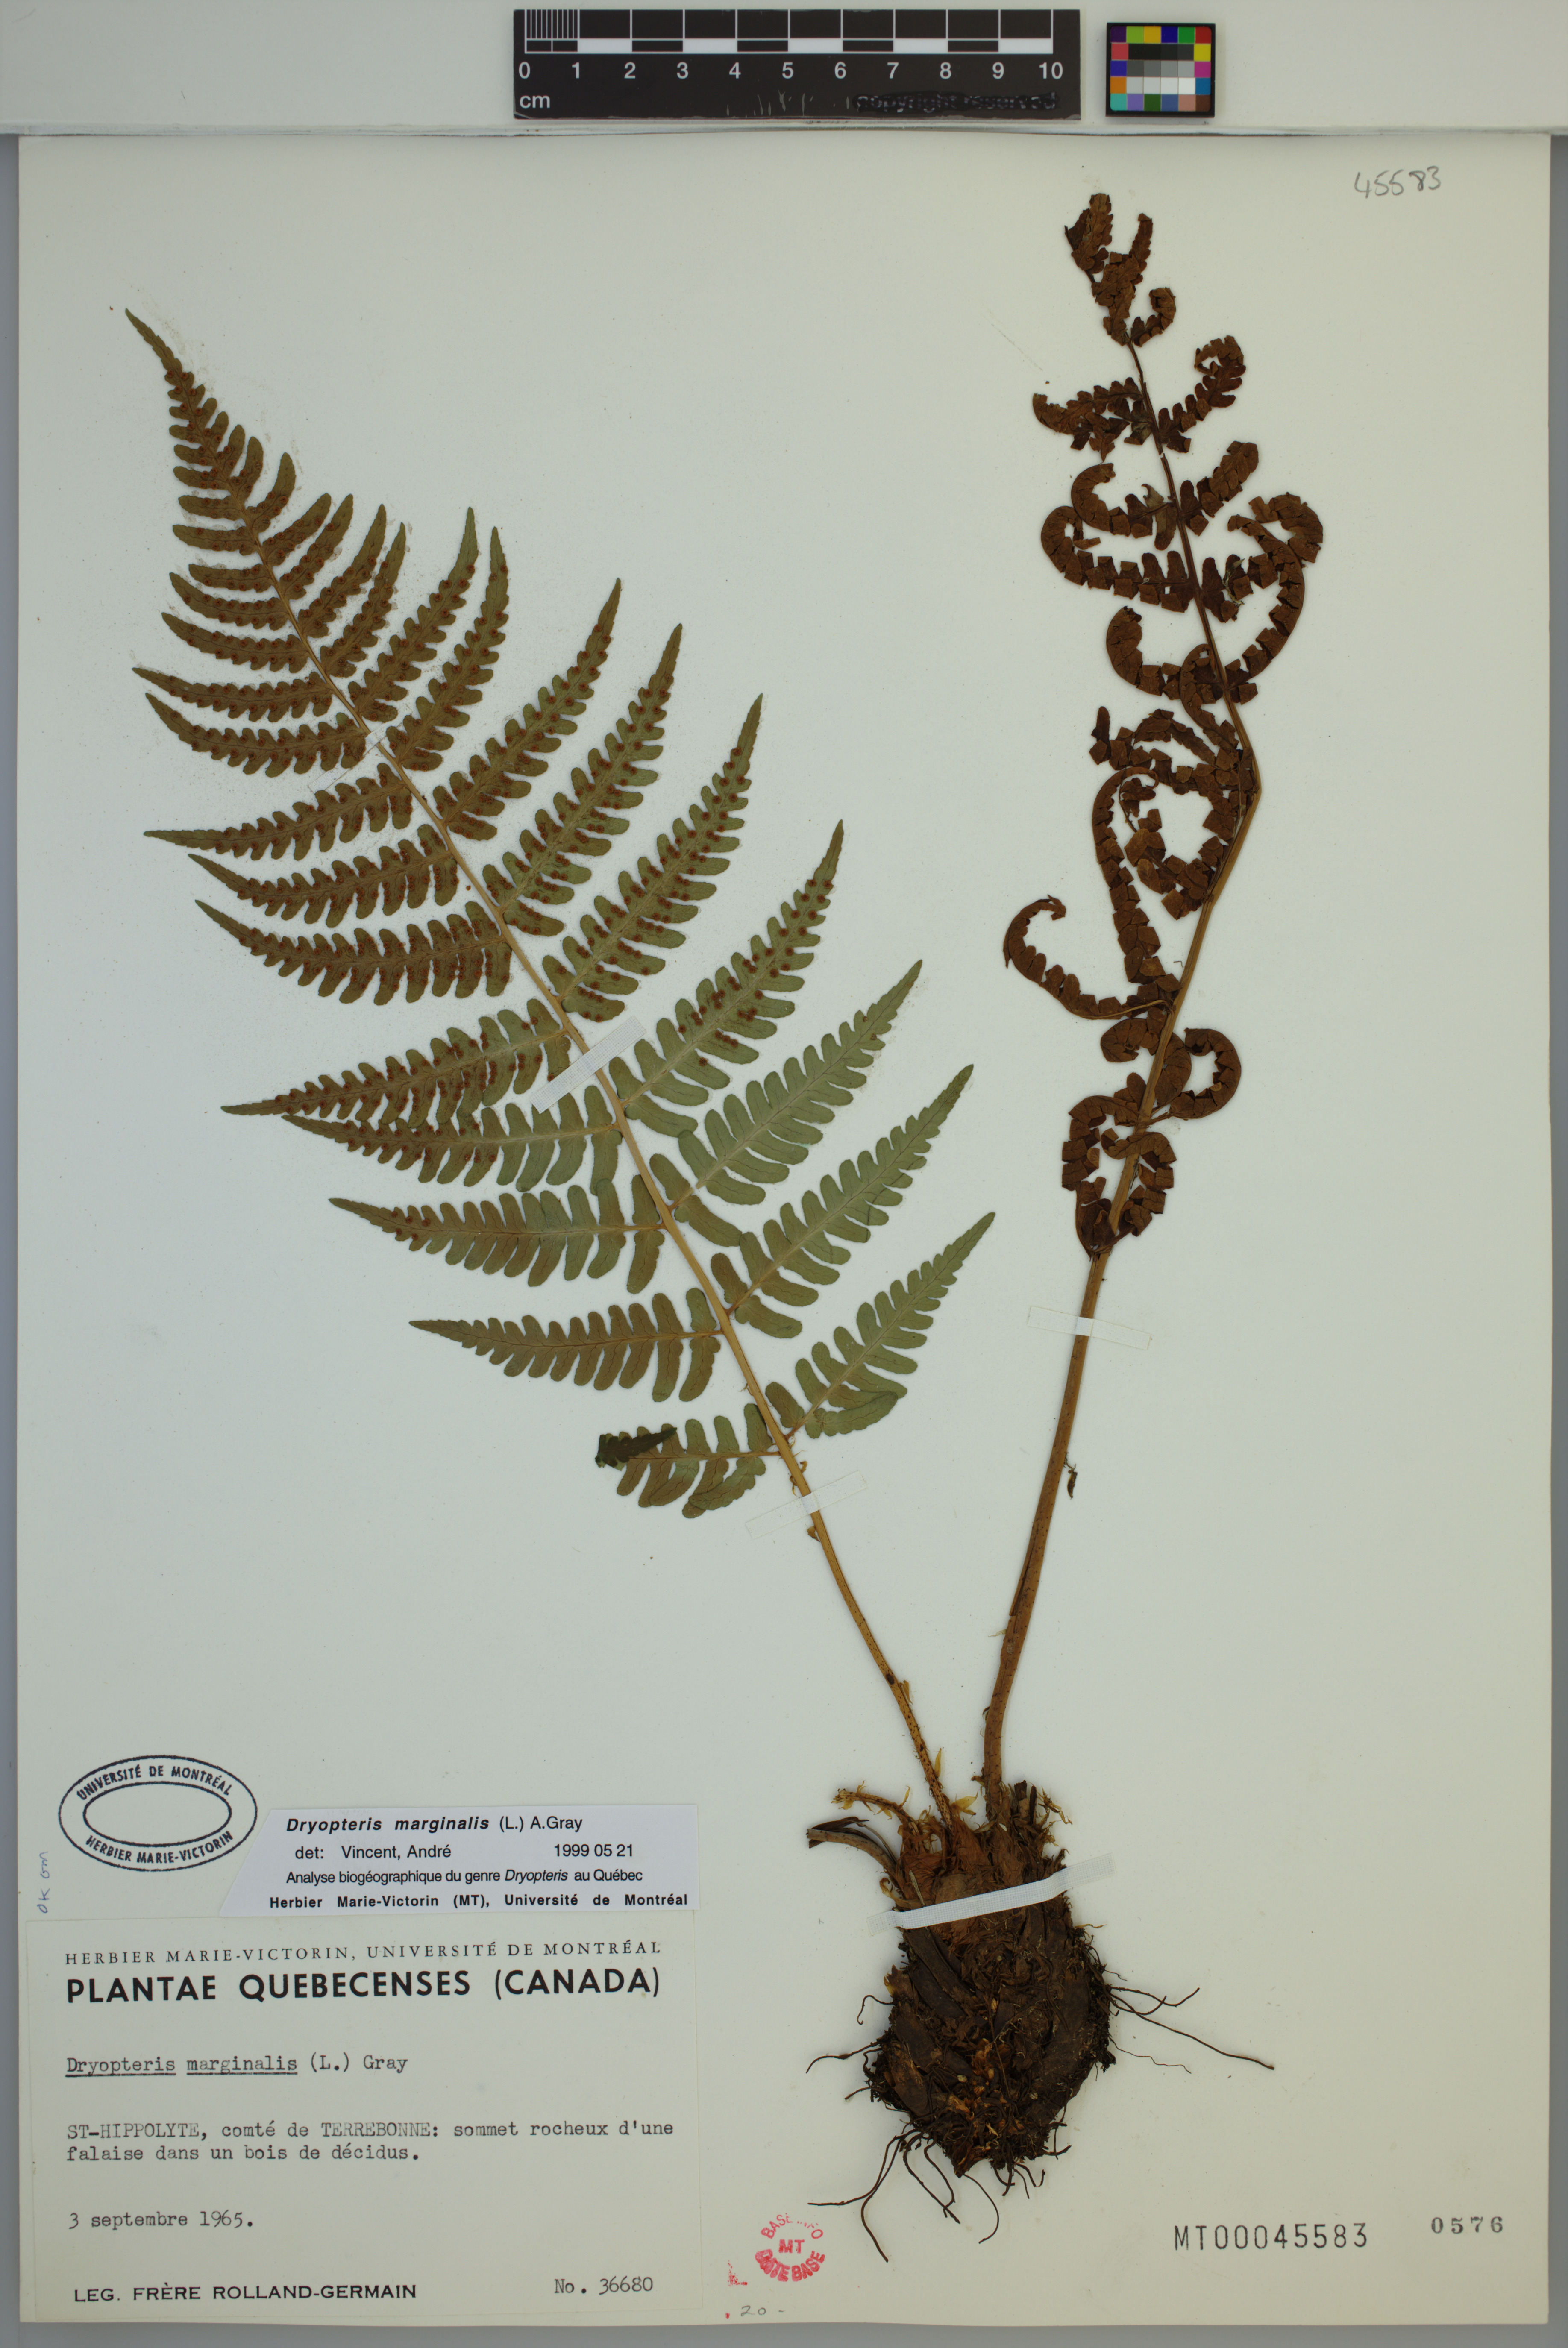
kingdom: Plantae
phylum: Tracheophyta
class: Polypodiopsida
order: Polypodiales
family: Dryopteridaceae
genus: Dryopteris
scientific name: Dryopteris marginalis
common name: Marginal wood fern
